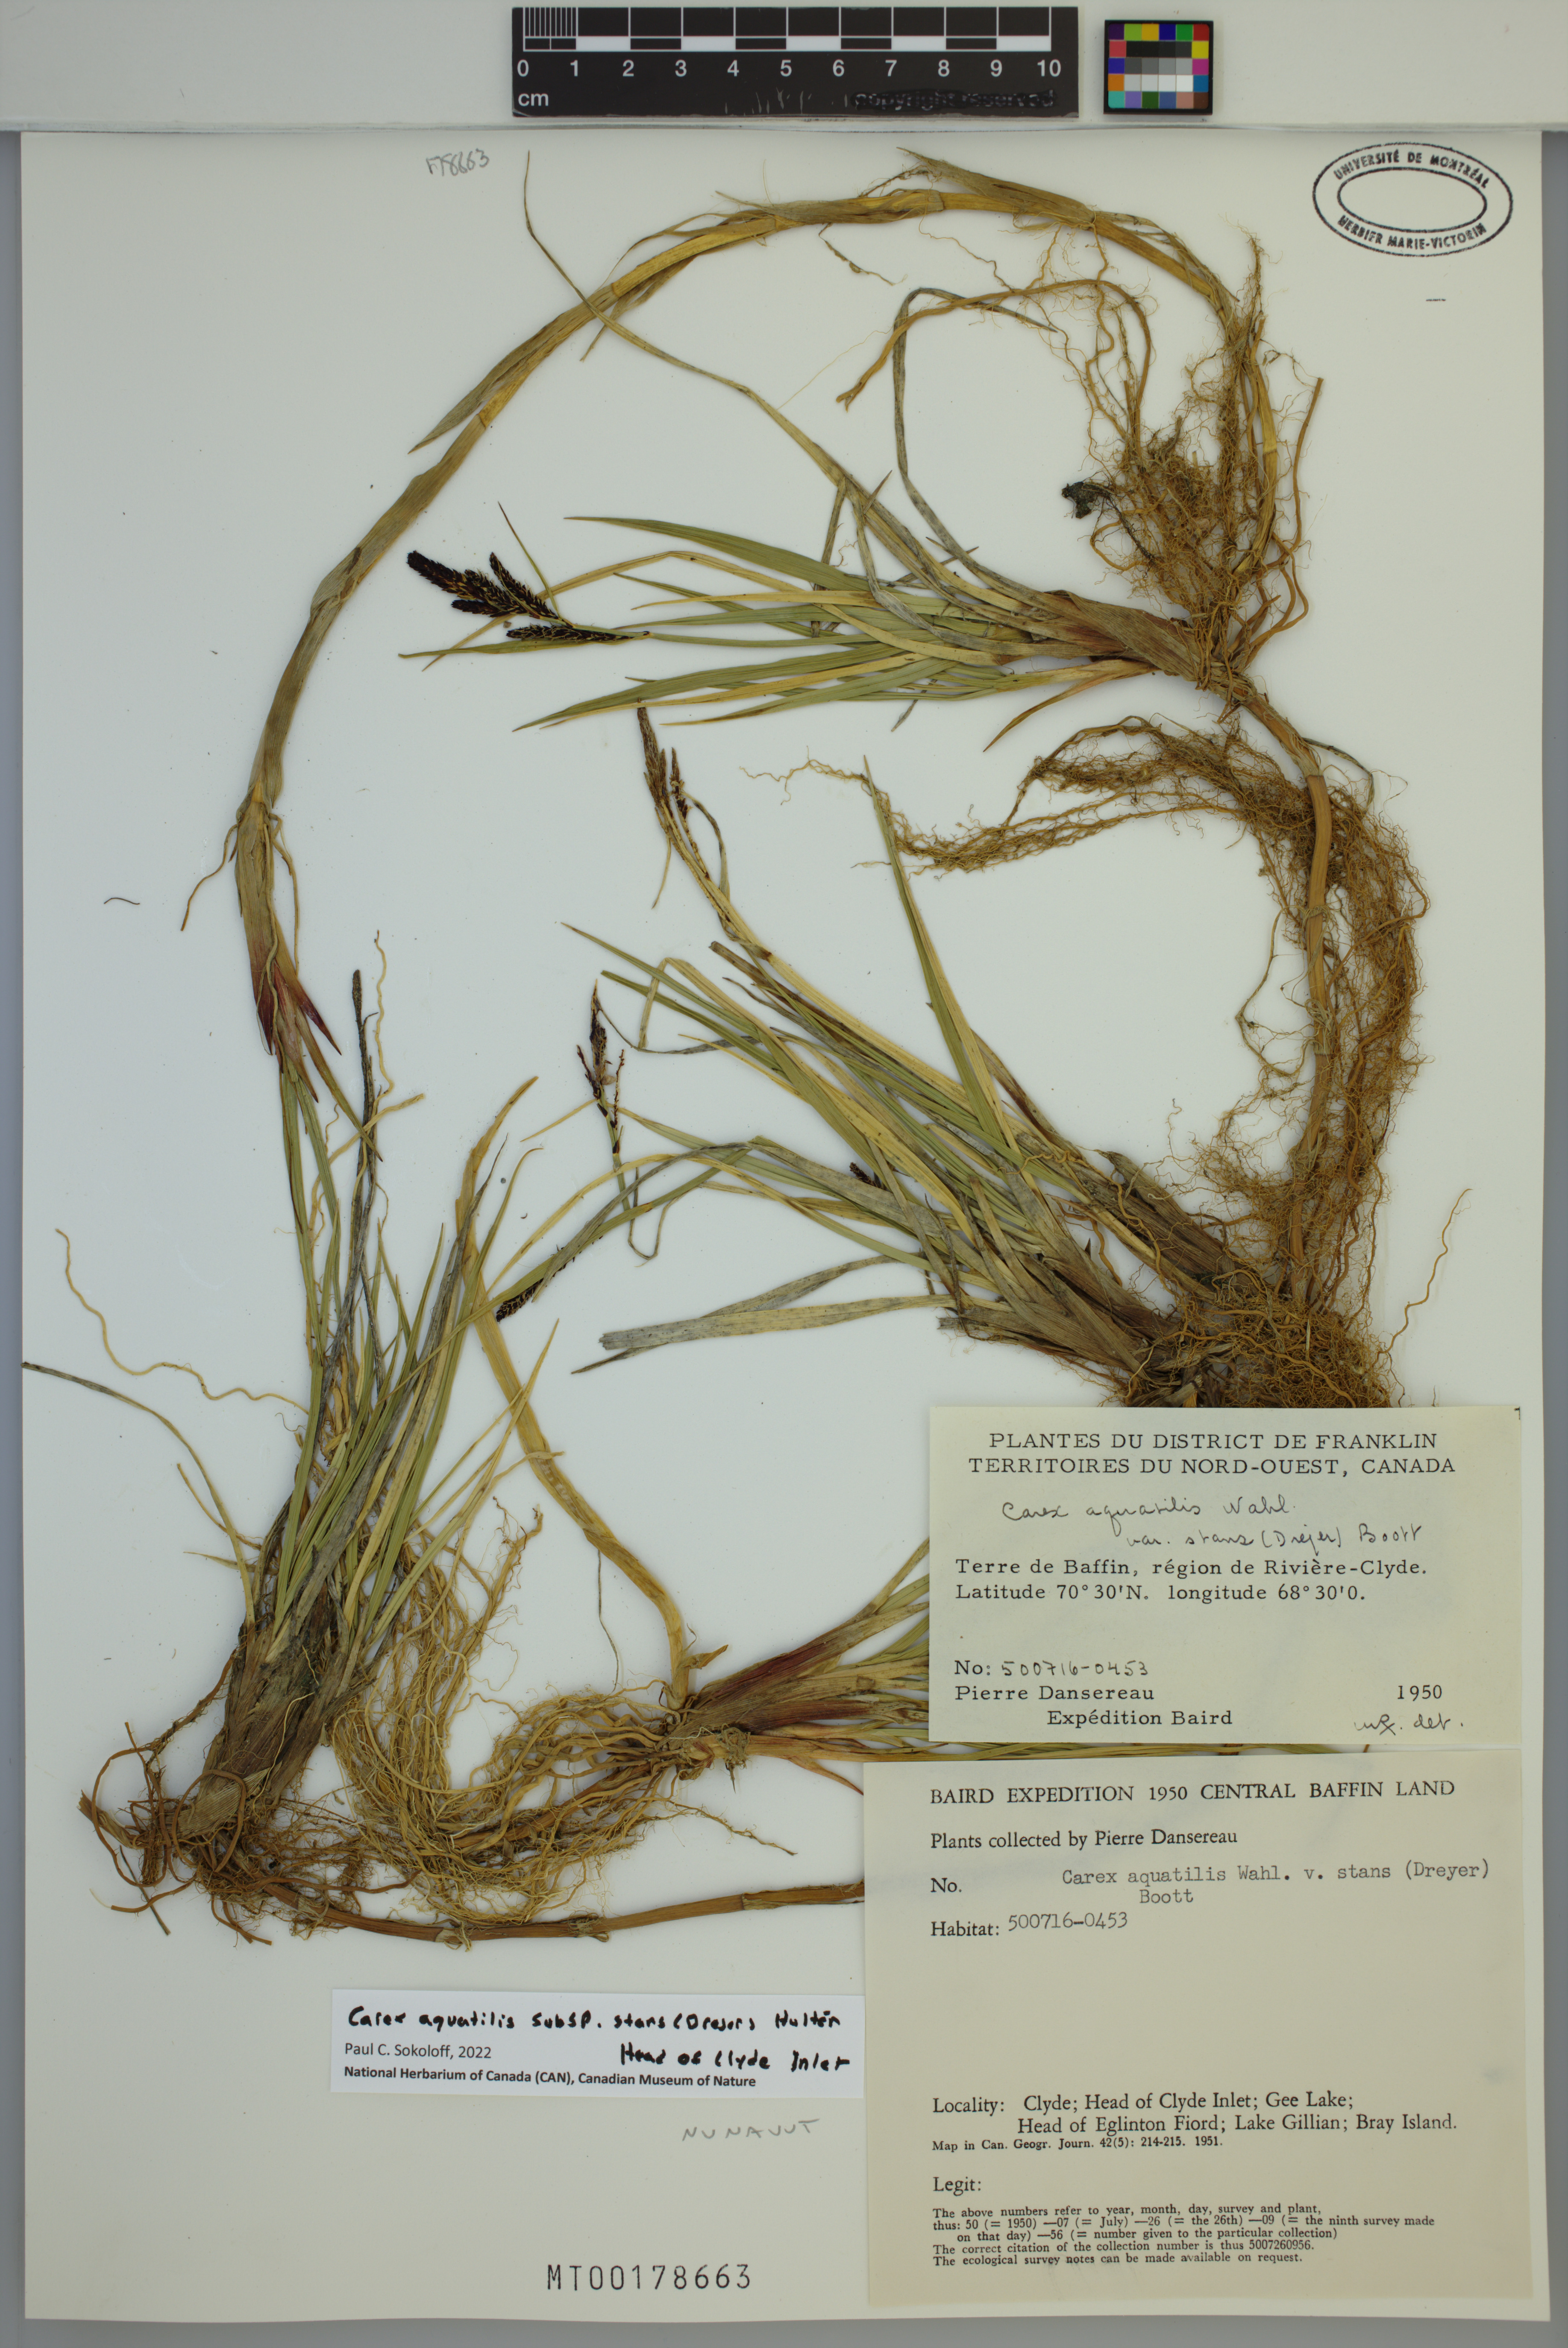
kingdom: Plantae
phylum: Tracheophyta
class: Liliopsida
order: Poales
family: Cyperaceae
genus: Carex
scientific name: Carex aquatilis
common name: Water sedge
